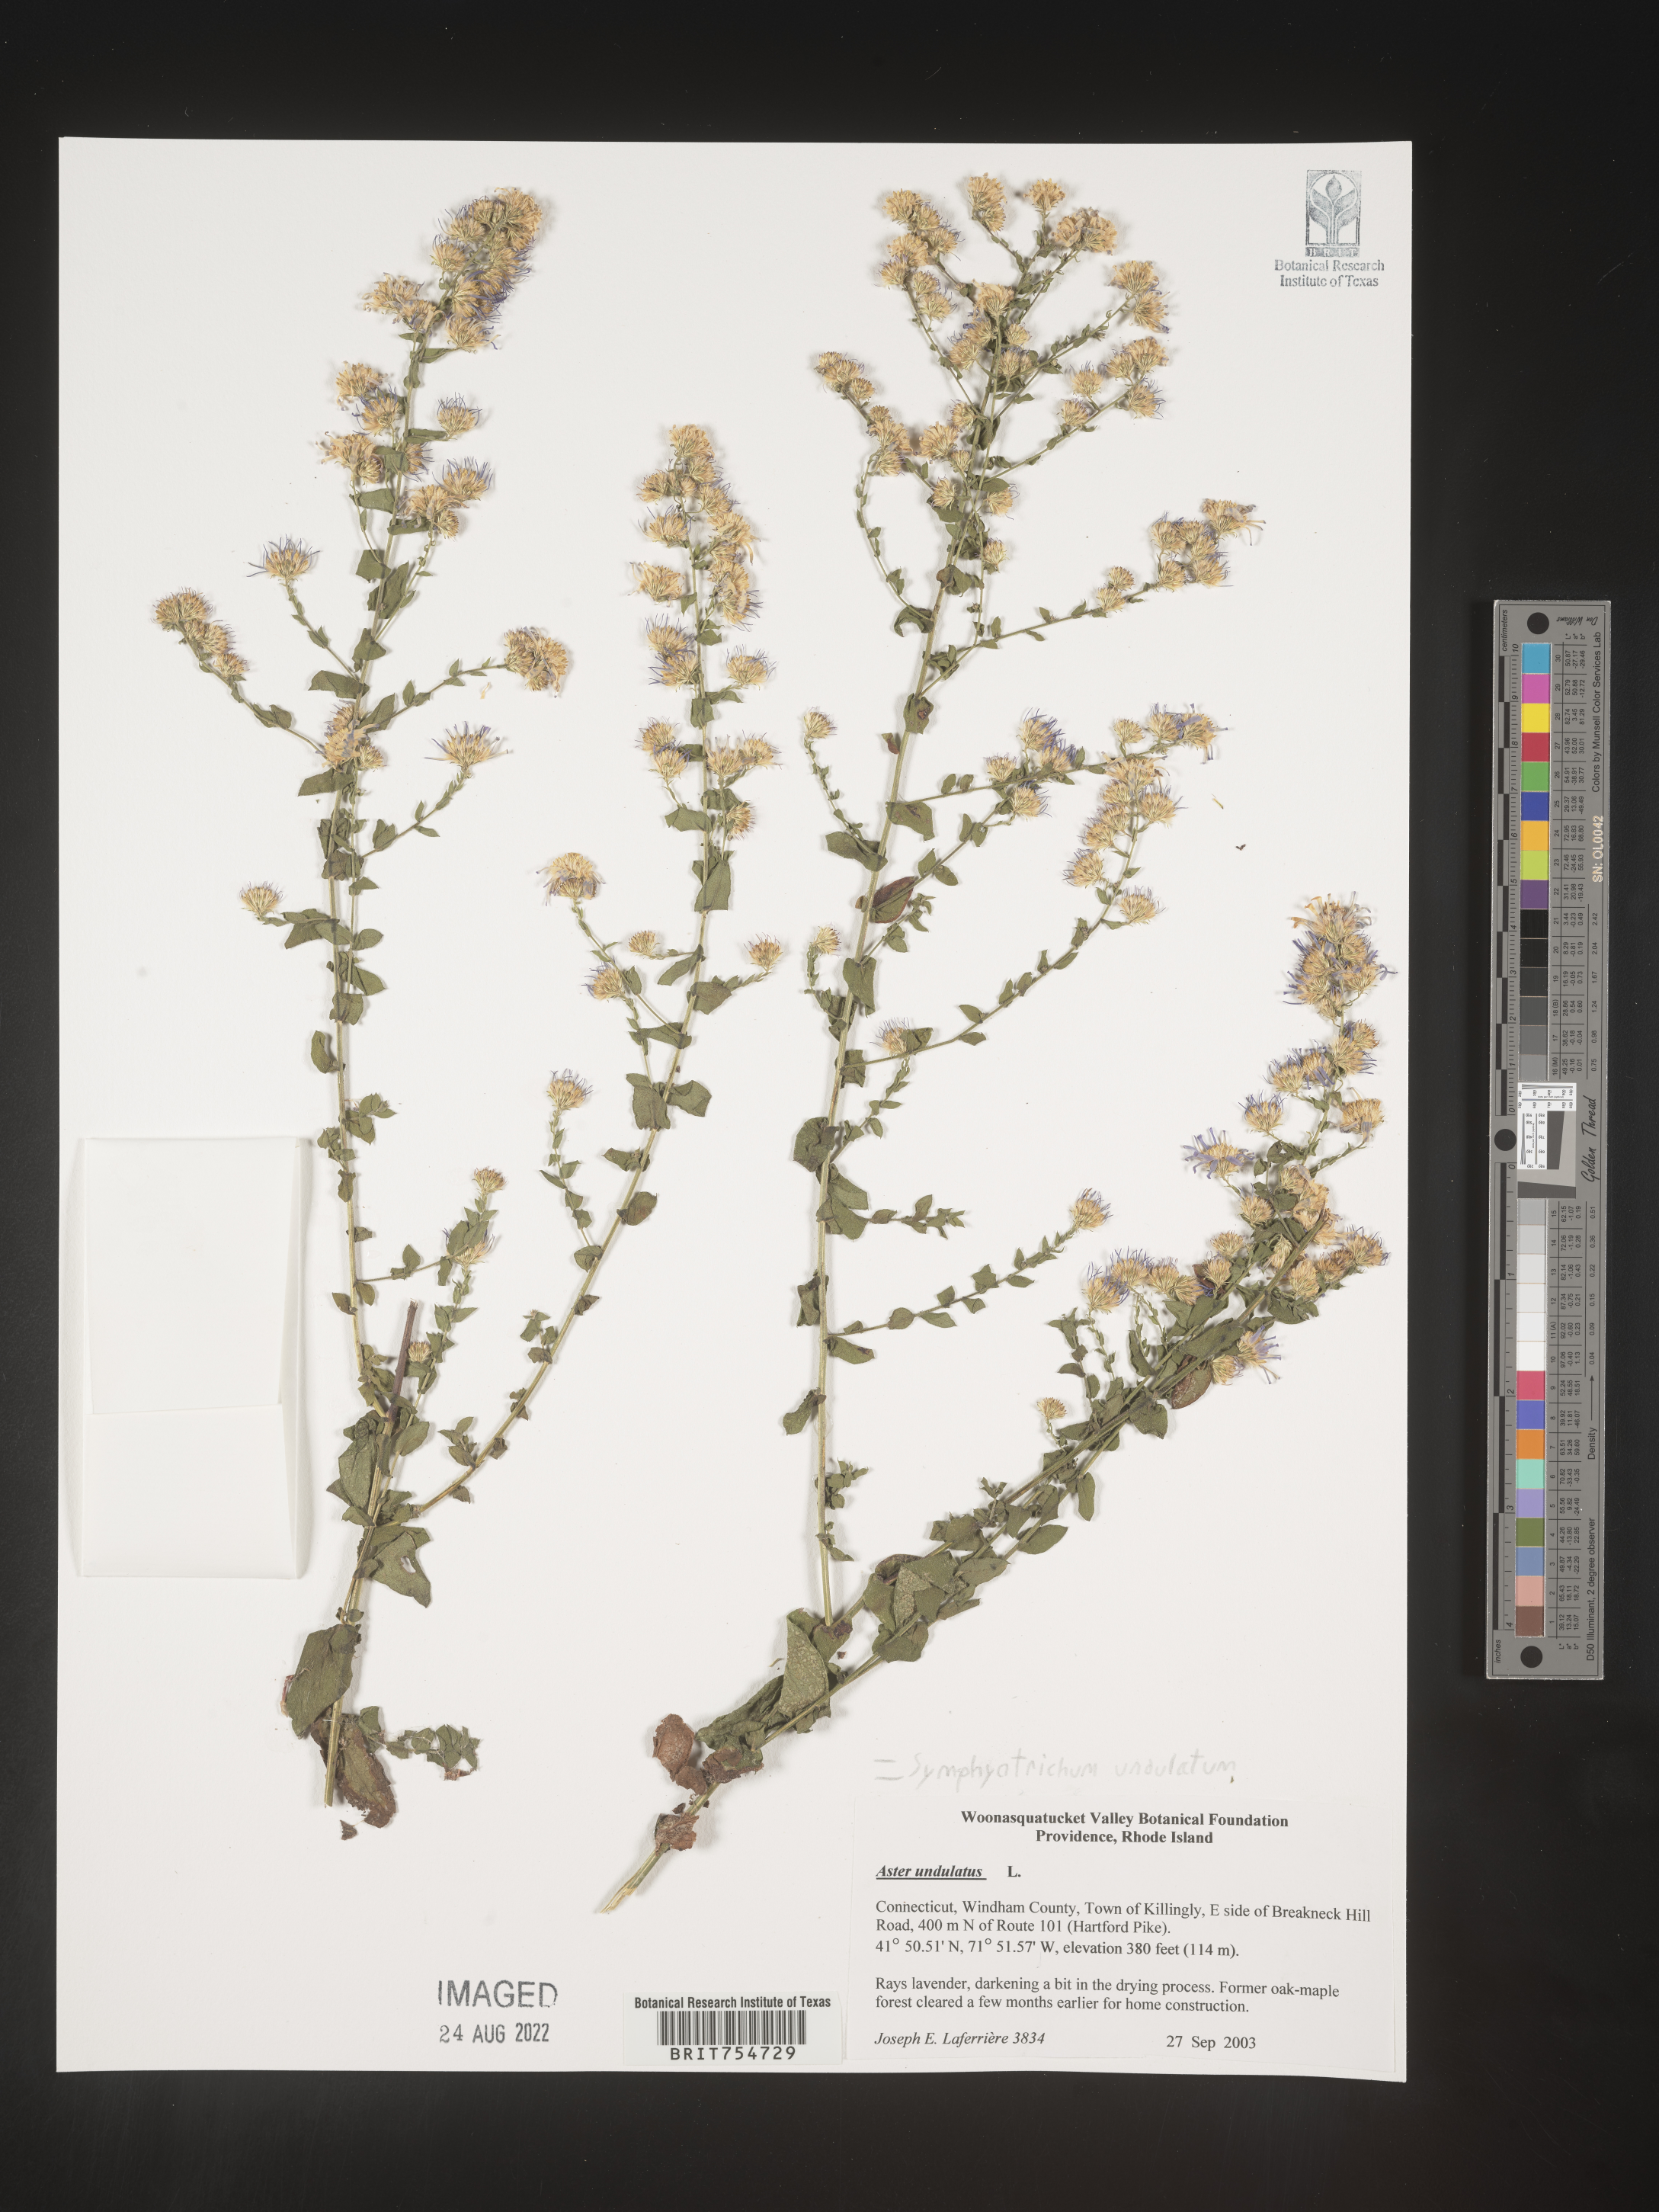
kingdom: Plantae
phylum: Tracheophyta
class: Magnoliopsida
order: Asterales
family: Asteraceae
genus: Symphyotrichum
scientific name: Symphyotrichum undulatum
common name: Clasping heart-leaf aster
